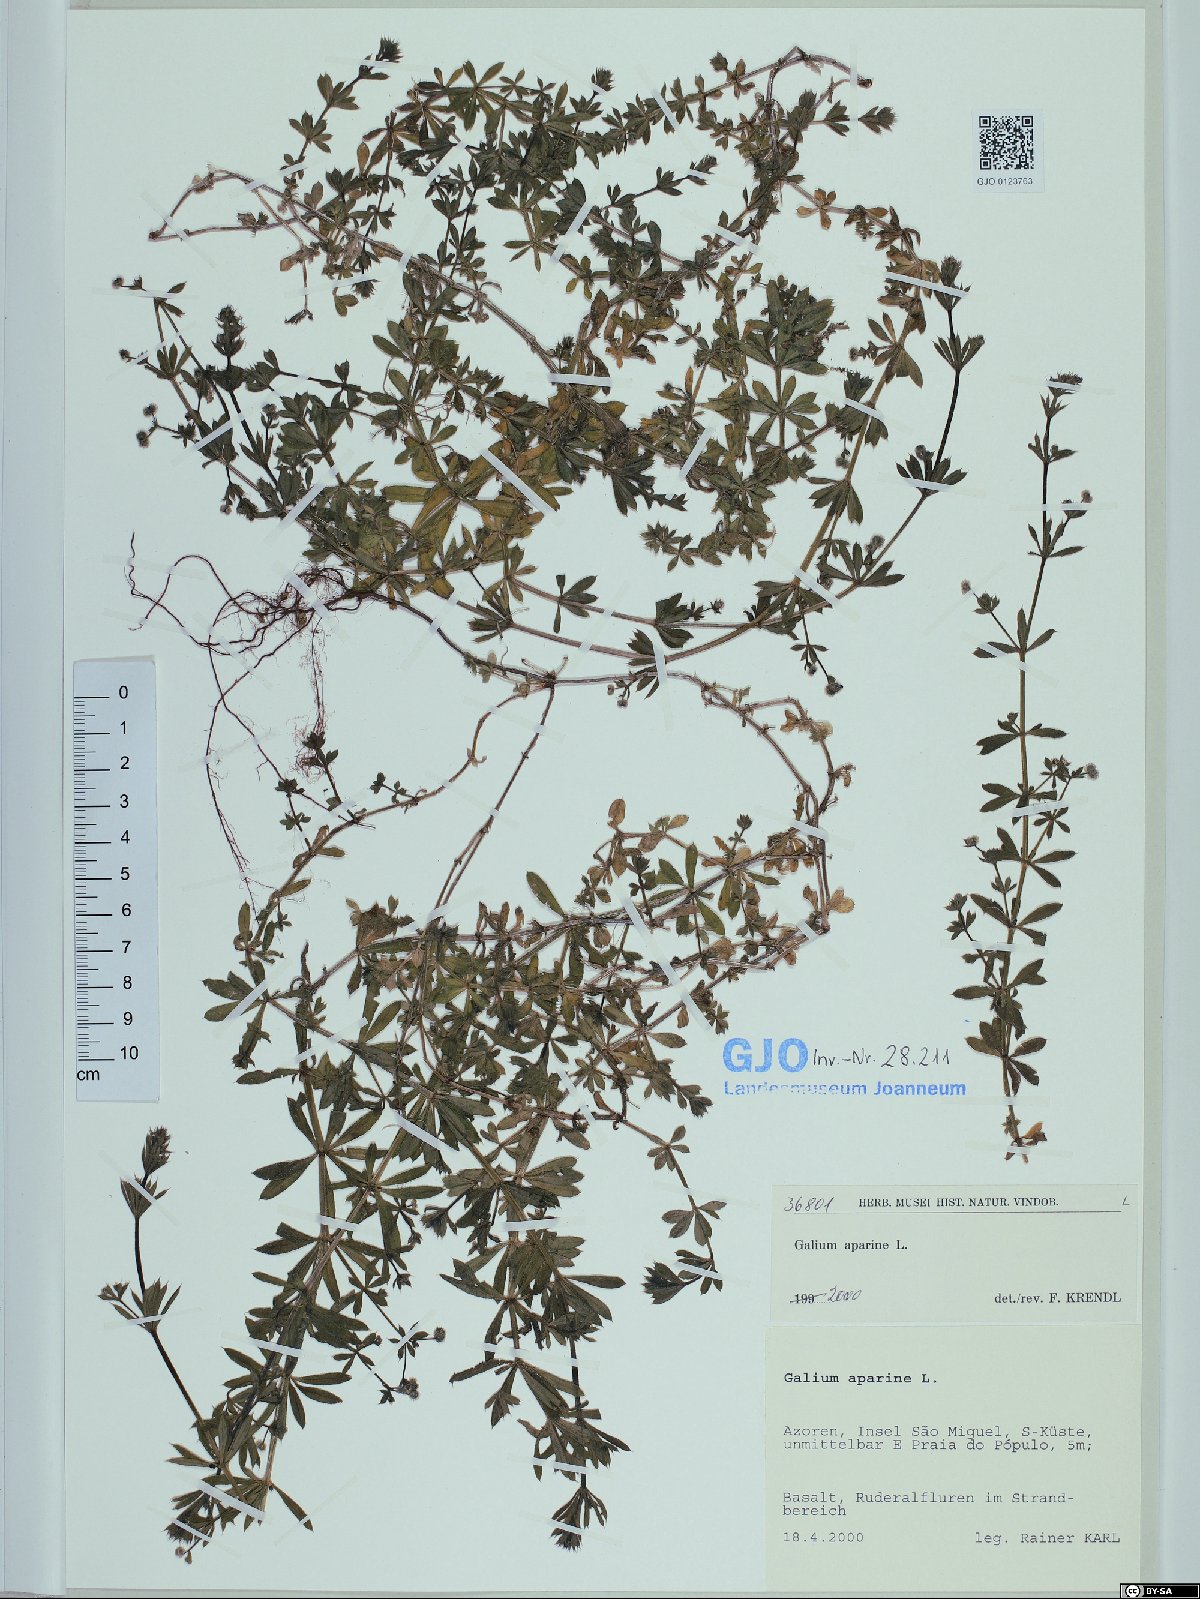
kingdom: Plantae
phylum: Tracheophyta
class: Magnoliopsida
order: Gentianales
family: Rubiaceae
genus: Galium
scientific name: Galium aparine
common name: Cleavers
